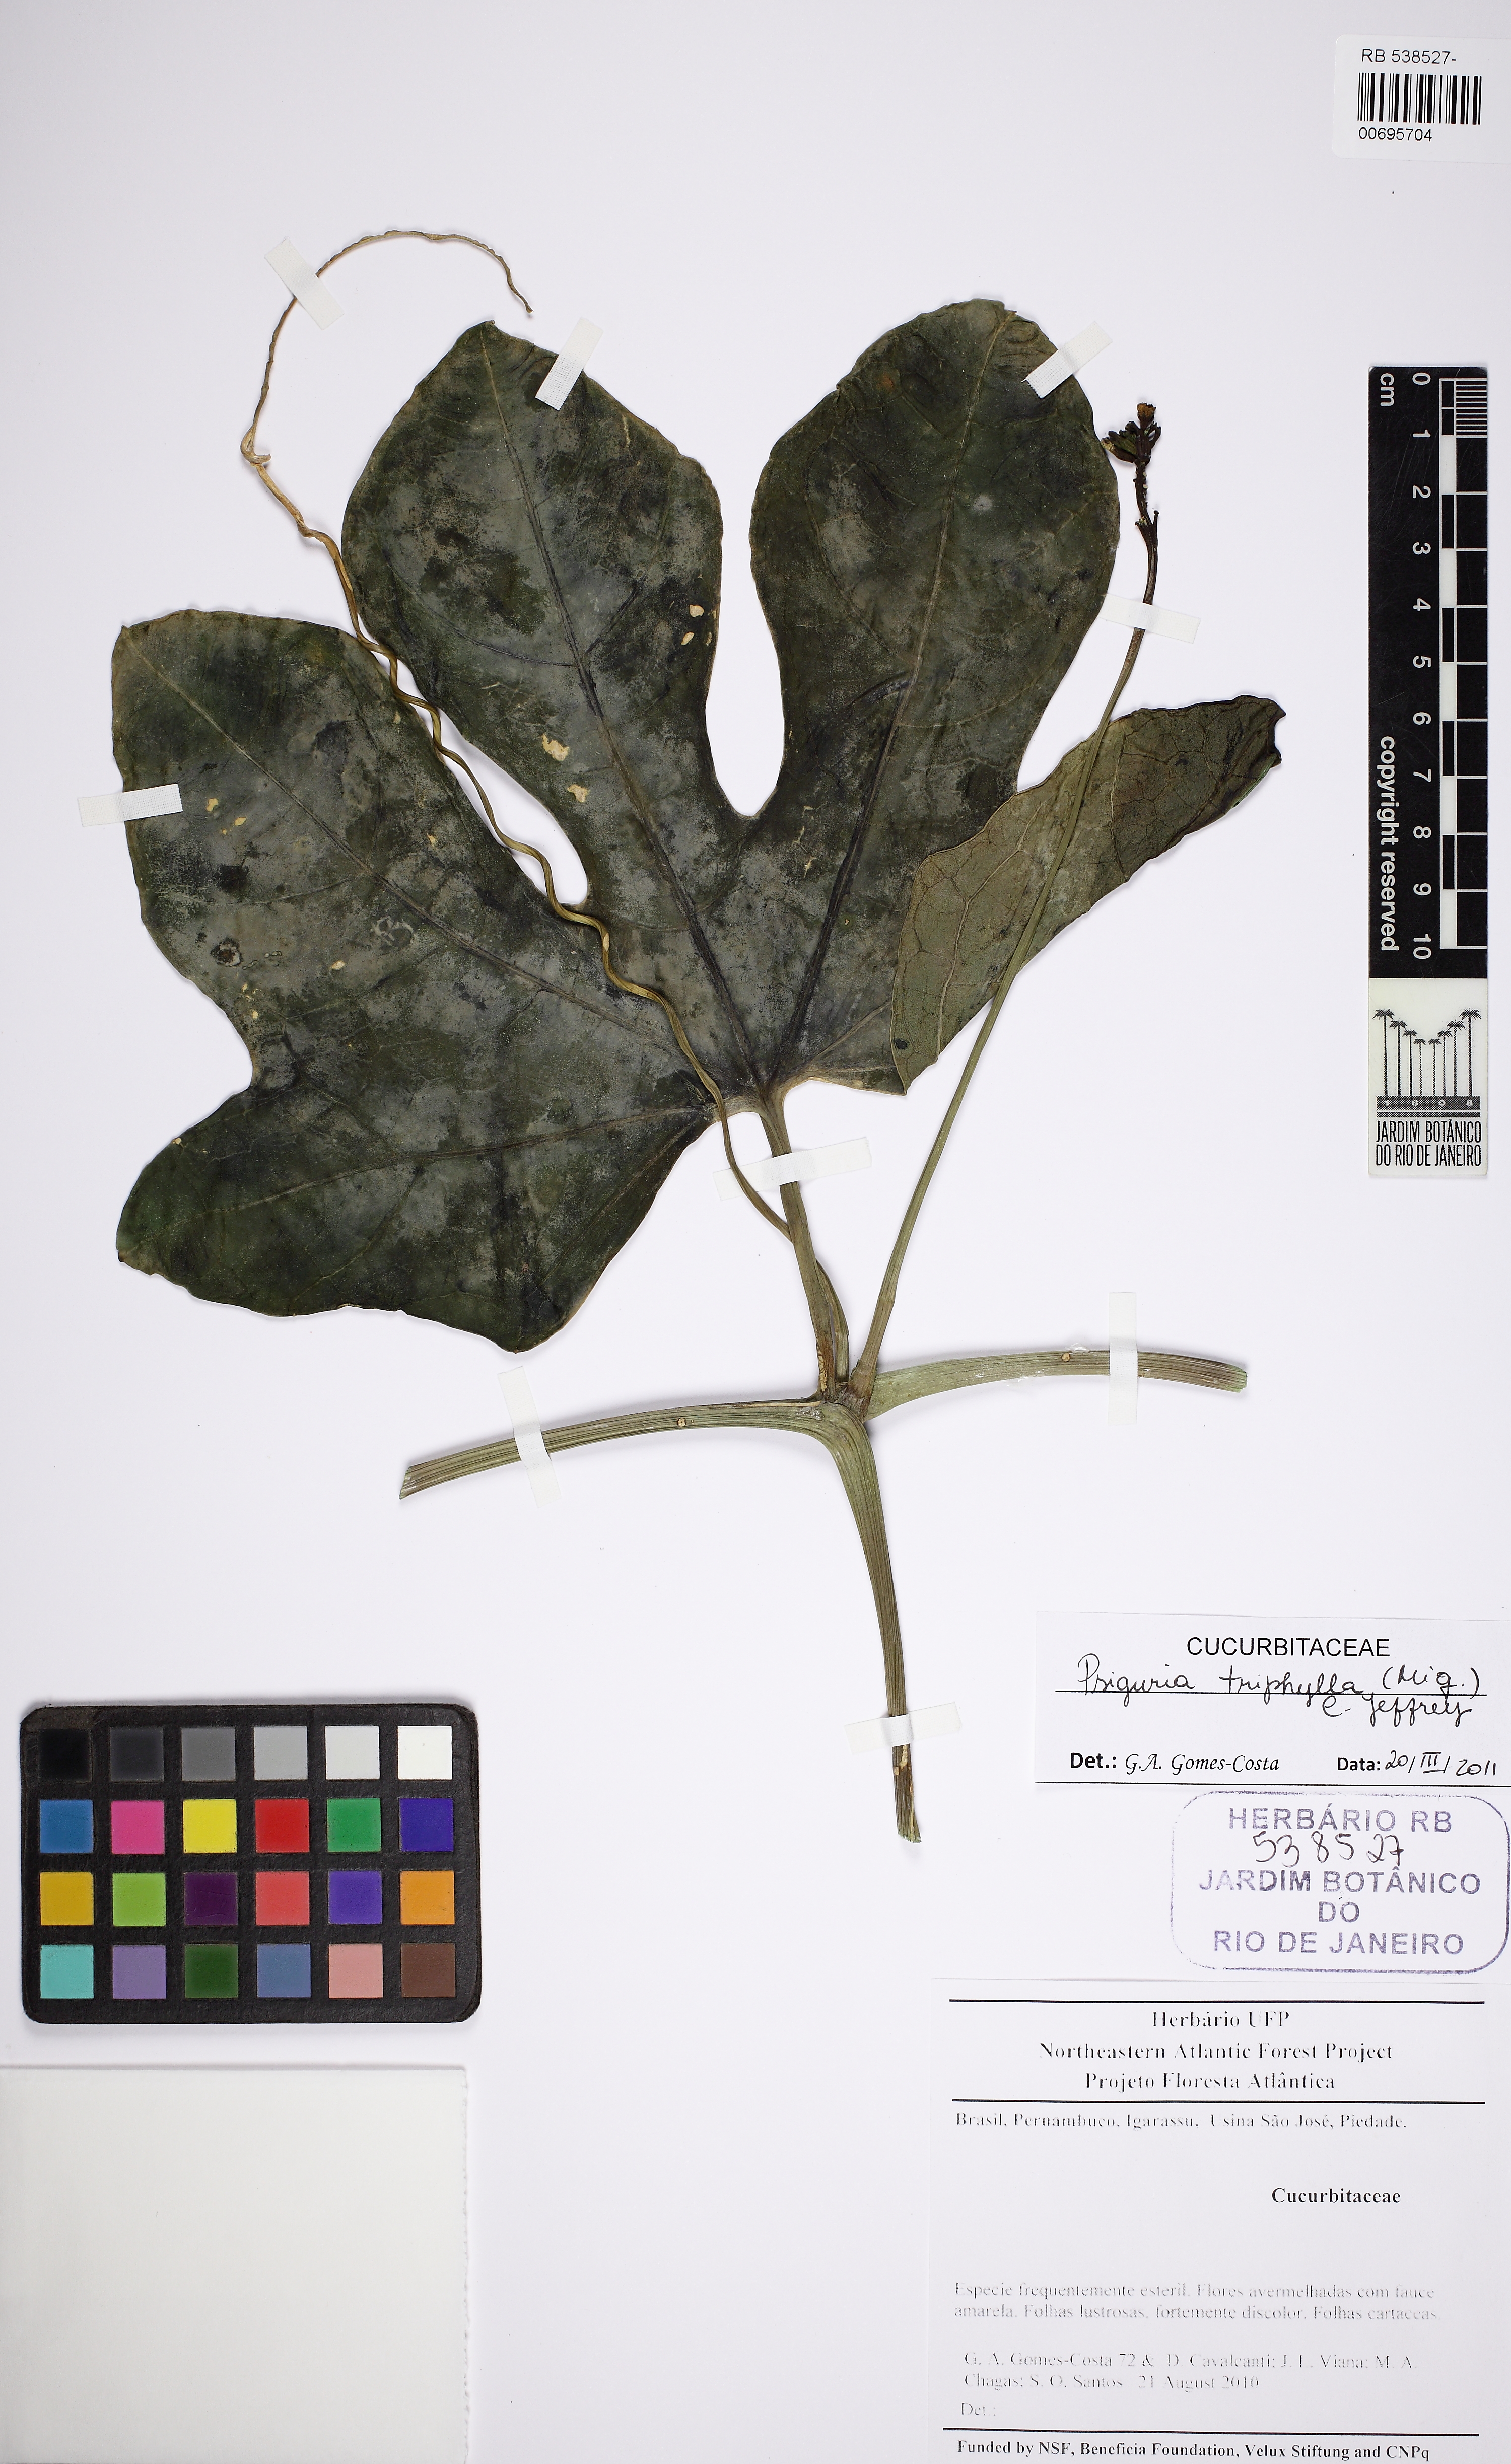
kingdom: Plantae
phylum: Tracheophyta
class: Magnoliopsida
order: Cucurbitales
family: Cucurbitaceae
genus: Psiguria
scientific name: Psiguria triphylla
